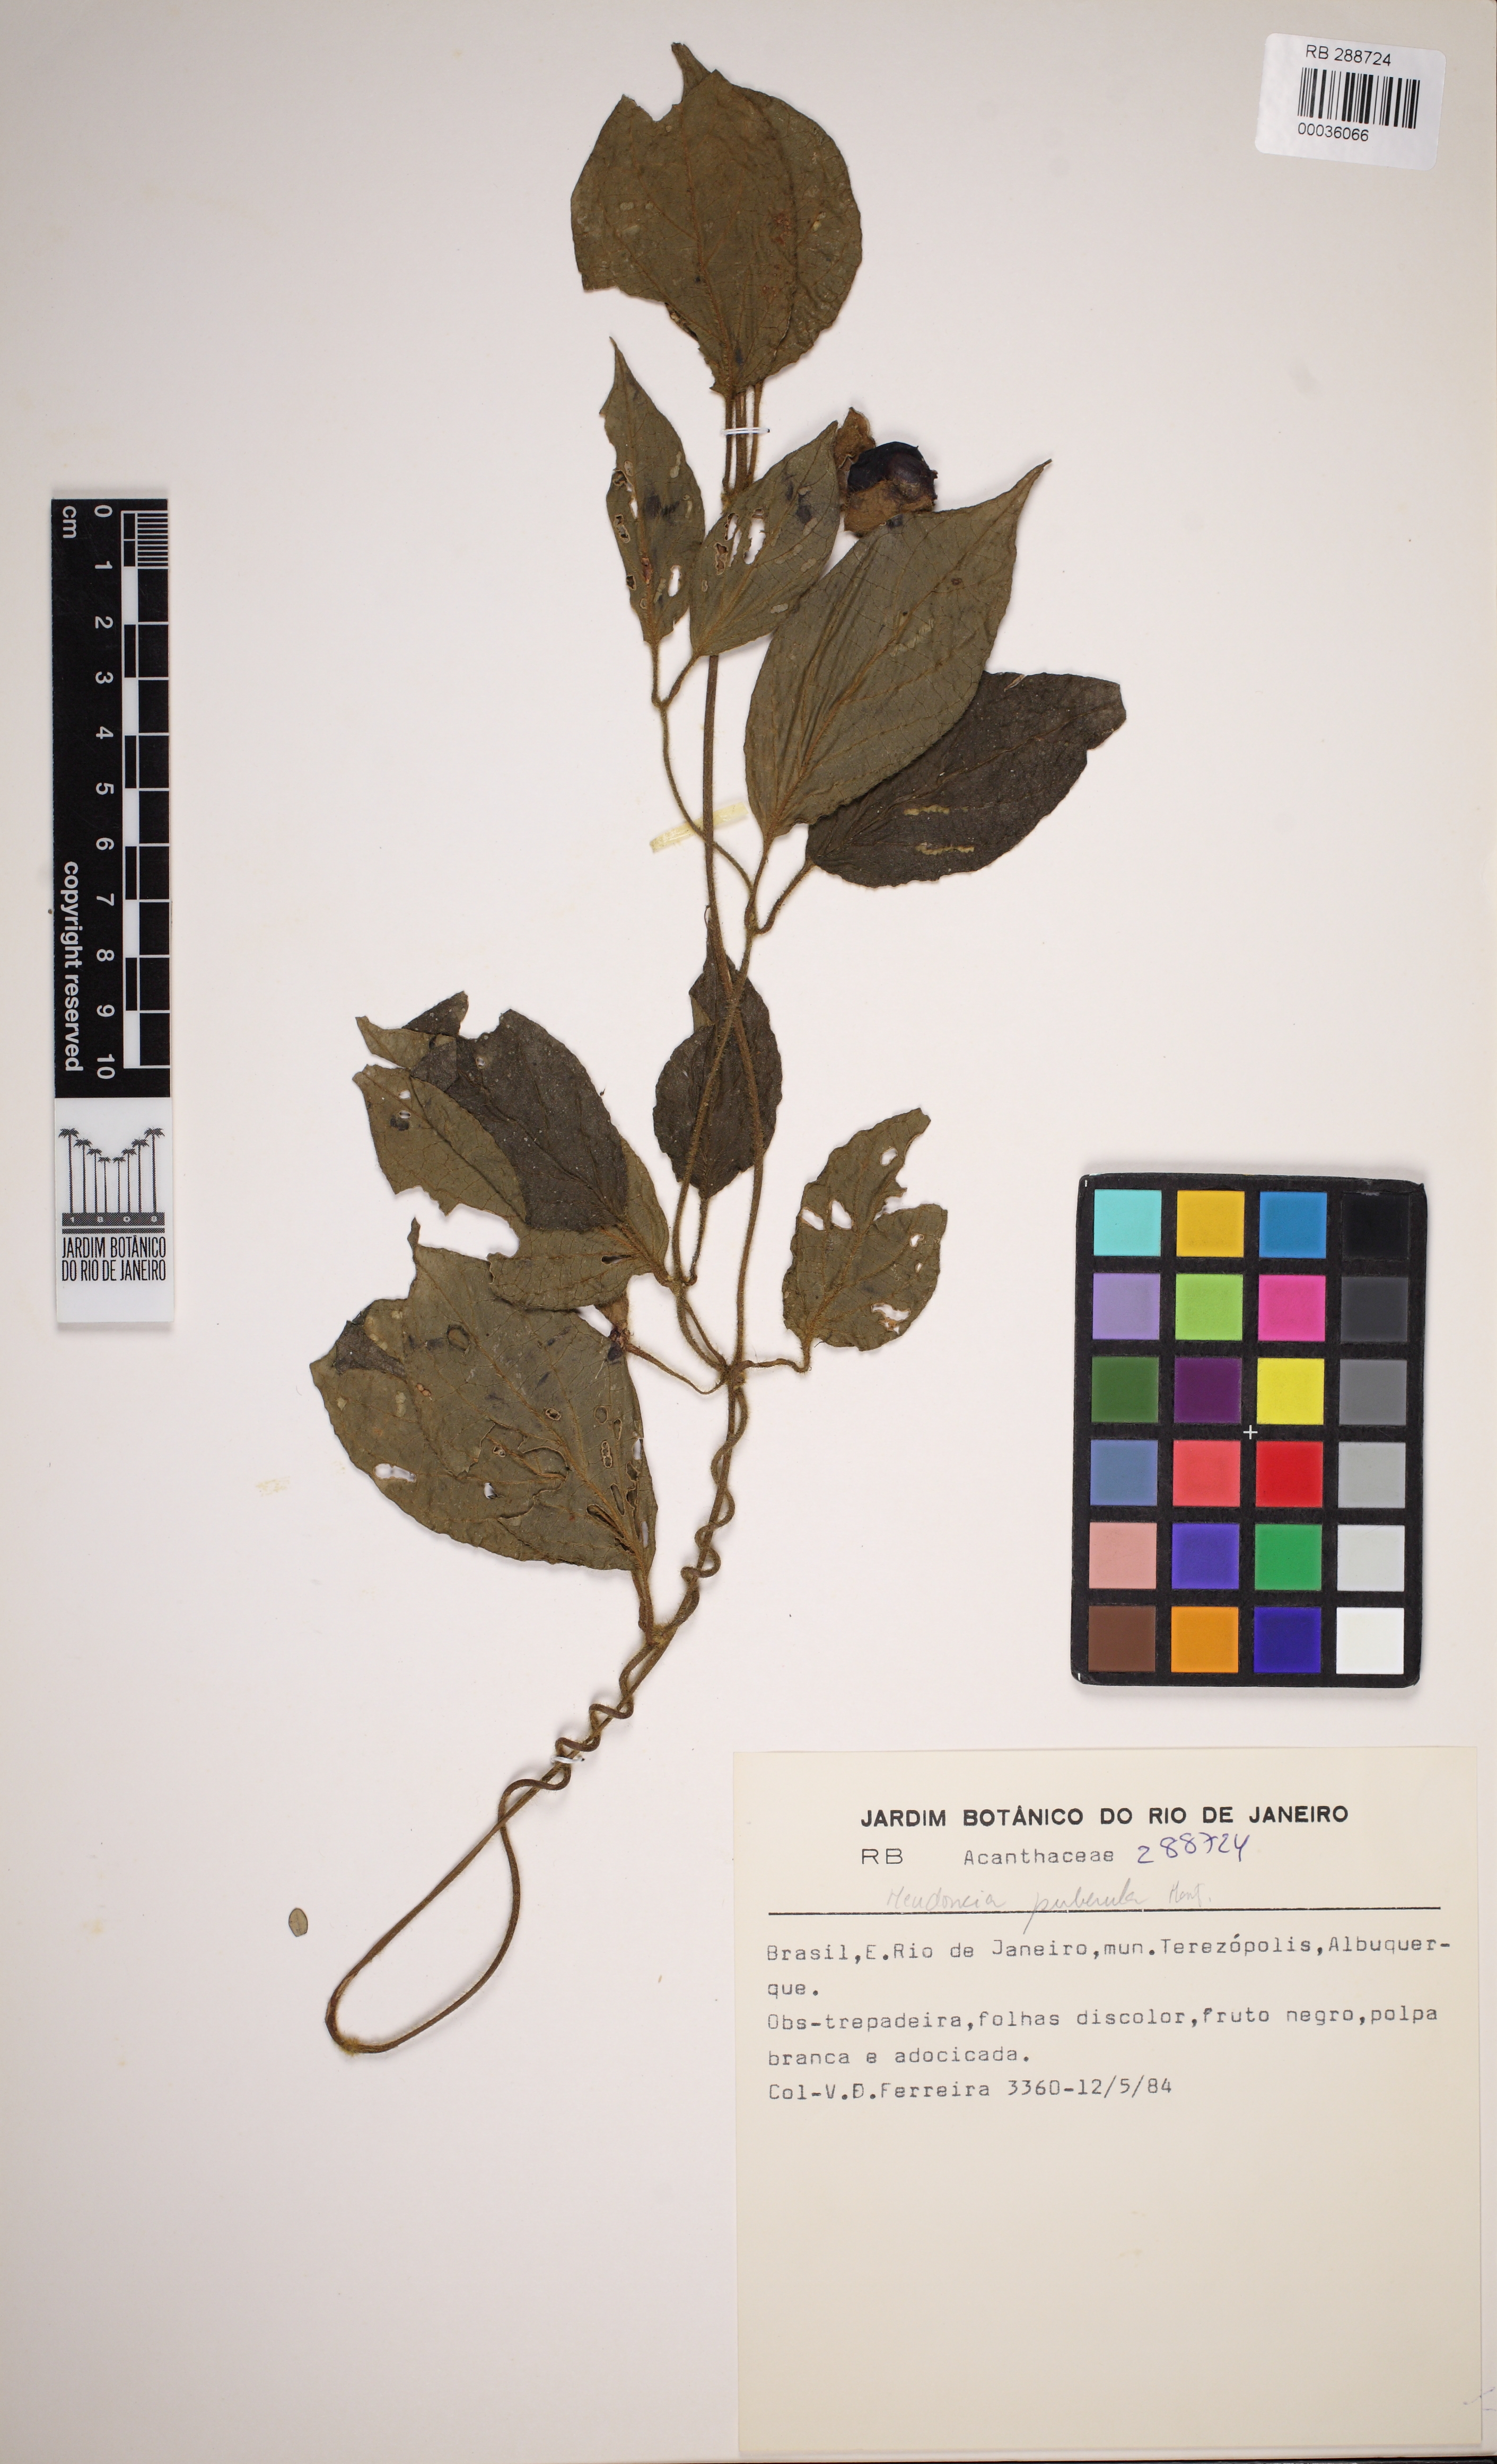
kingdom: Plantae
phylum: Tracheophyta
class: Magnoliopsida
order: Lamiales
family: Acanthaceae
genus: Mendoncia
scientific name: Mendoncia puberula
